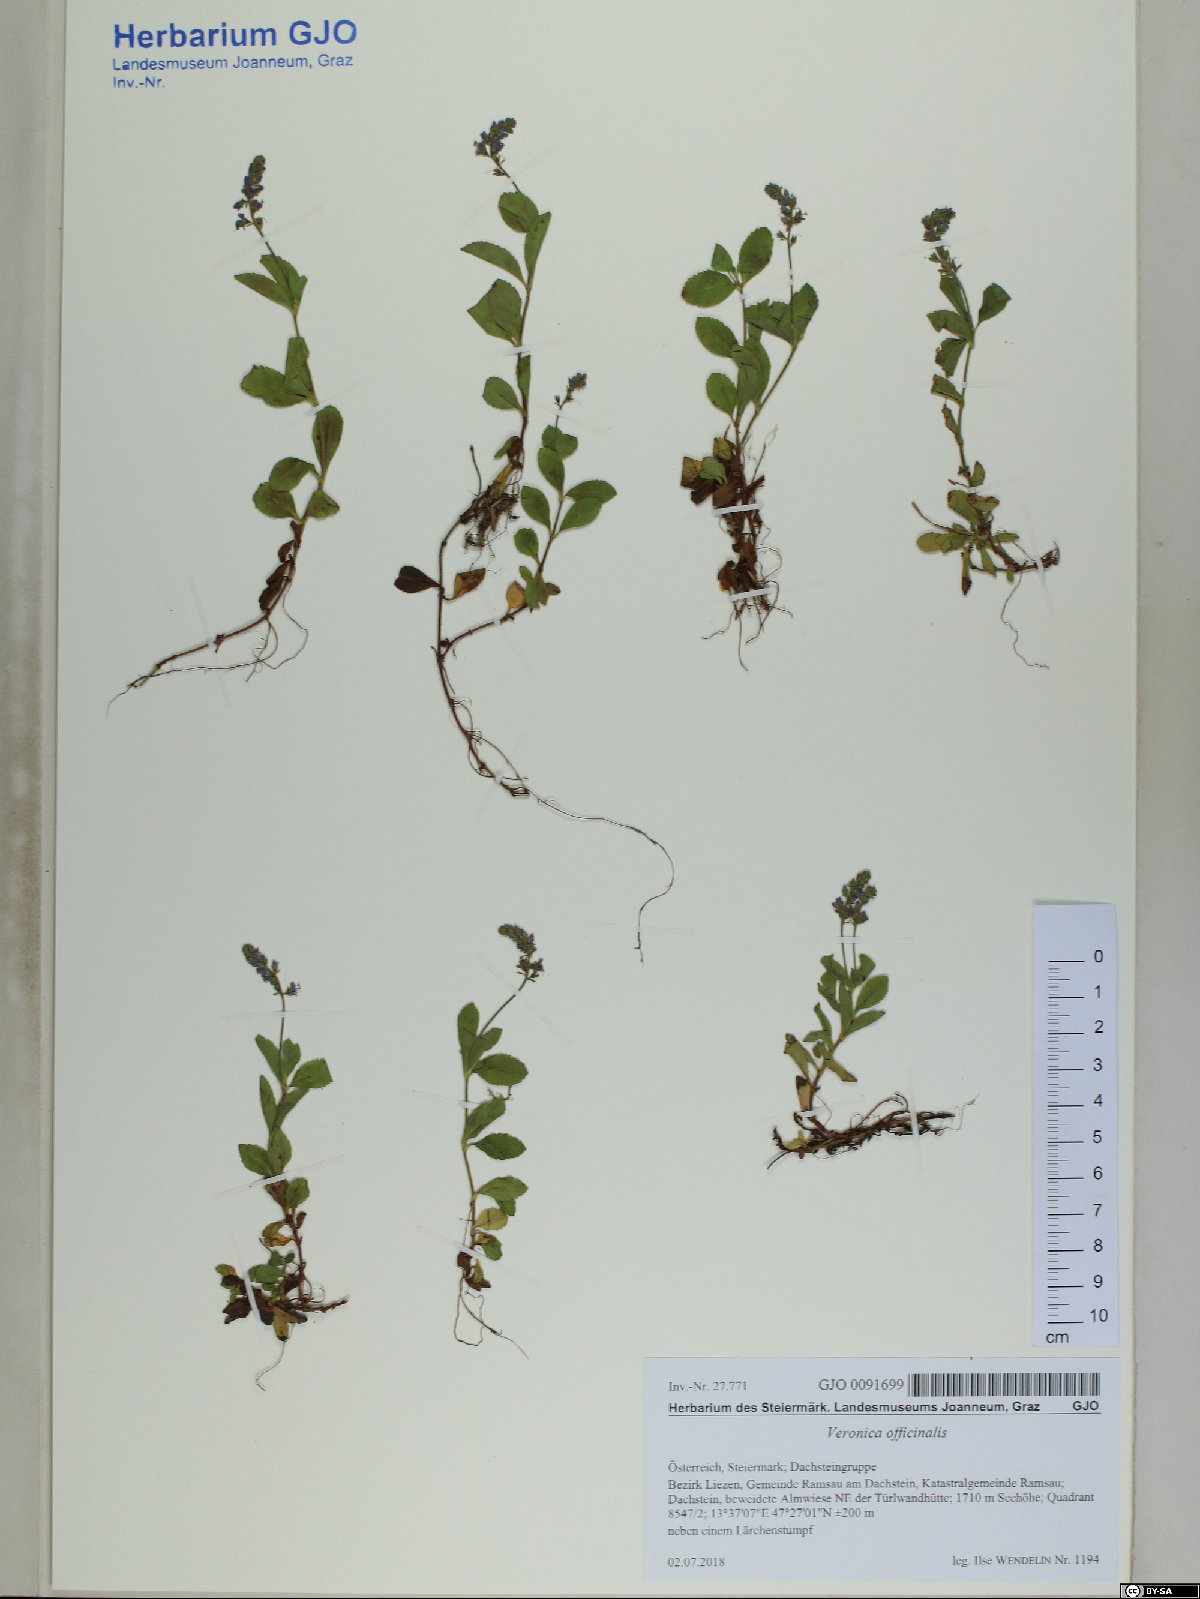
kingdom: Plantae
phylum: Tracheophyta
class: Magnoliopsida
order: Lamiales
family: Plantaginaceae
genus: Veronica
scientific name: Veronica officinalis
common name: Common speedwell
